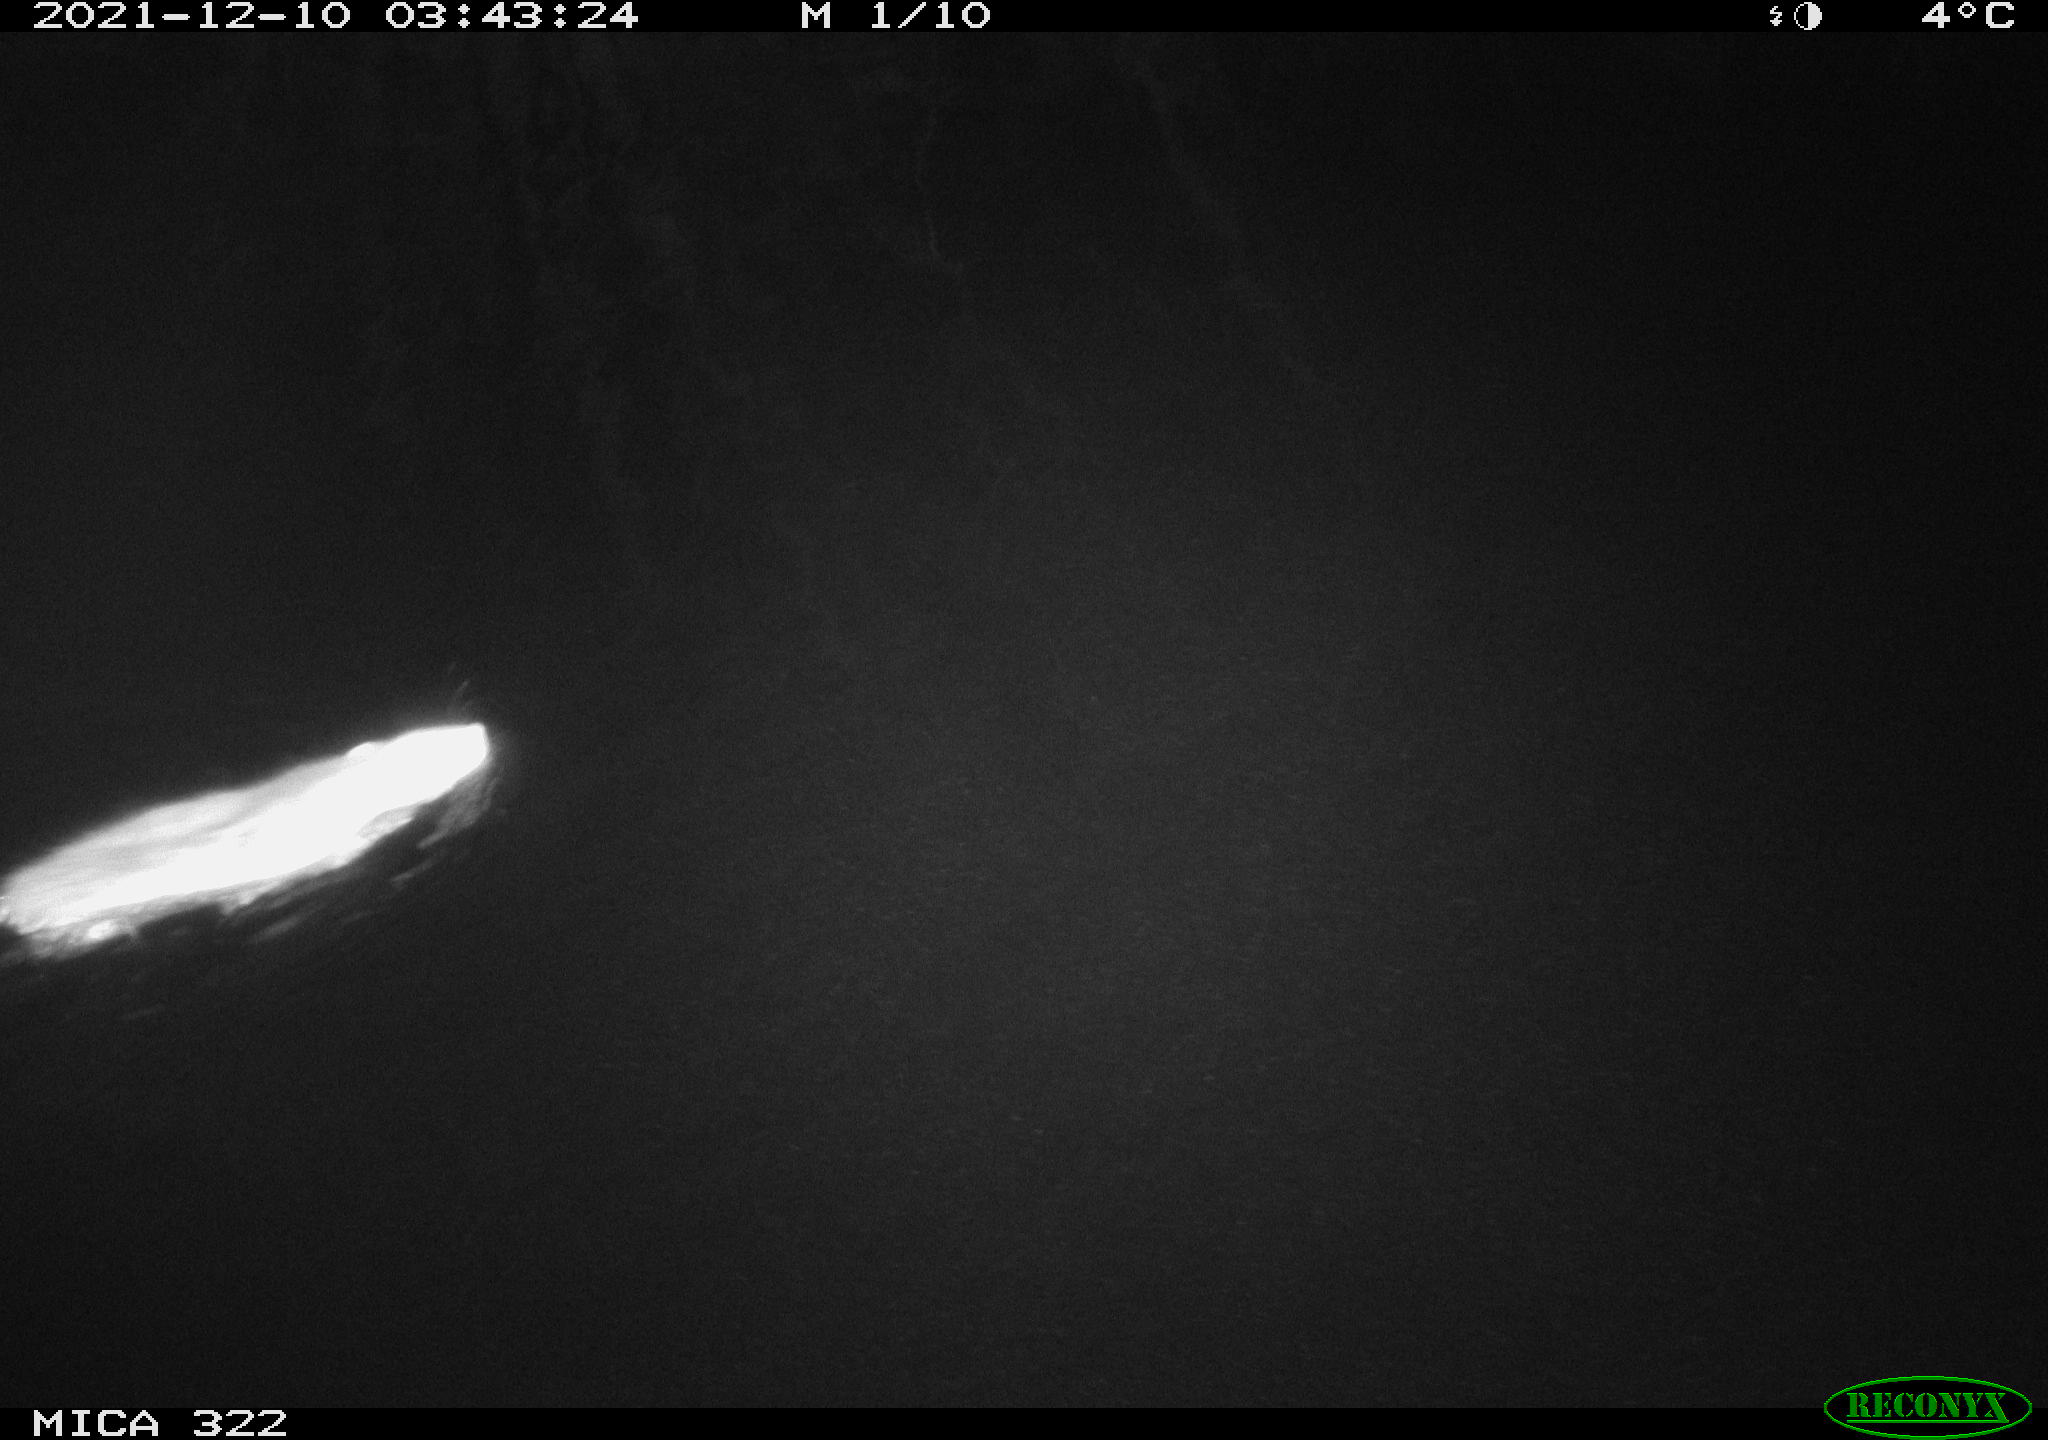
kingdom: Animalia
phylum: Chordata
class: Mammalia
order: Rodentia
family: Muridae
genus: Rattus
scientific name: Rattus norvegicus
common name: Brown rat
